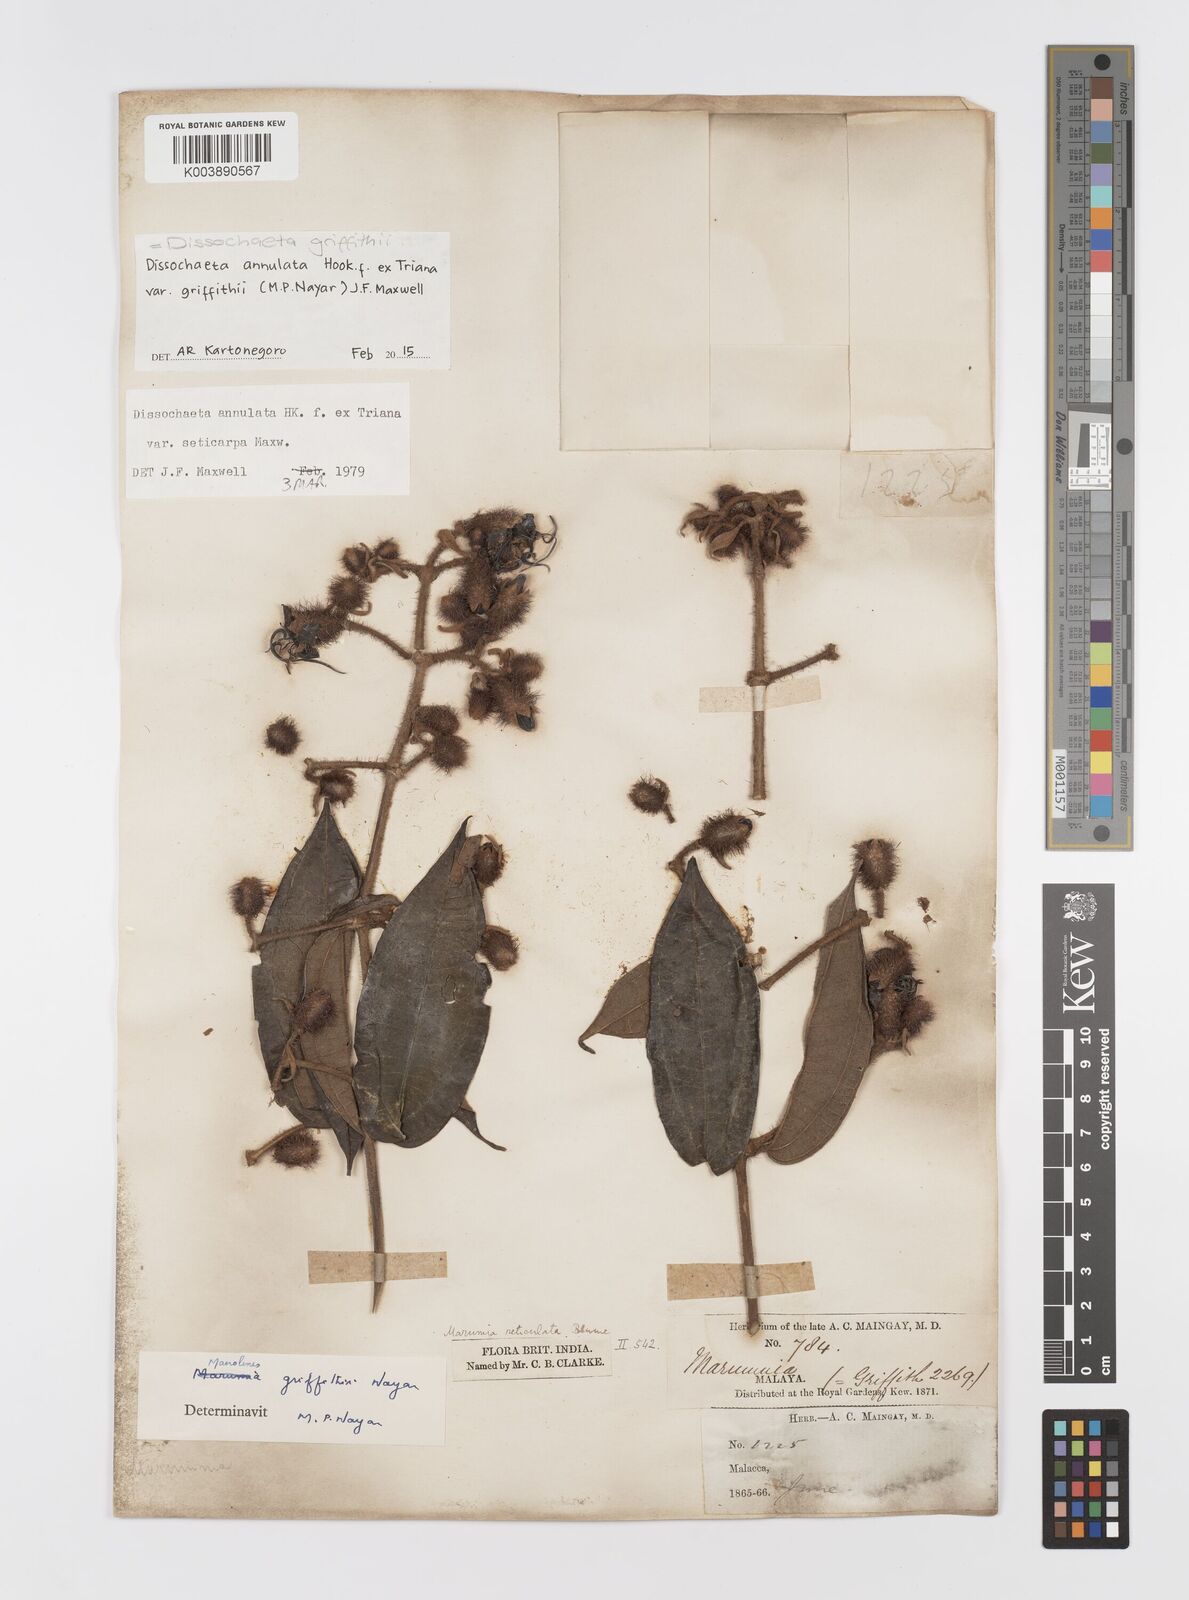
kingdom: Plantae
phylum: Tracheophyta
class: Magnoliopsida
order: Myrtales
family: Melastomataceae
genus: Dissochaeta
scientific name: Dissochaeta griffithii
